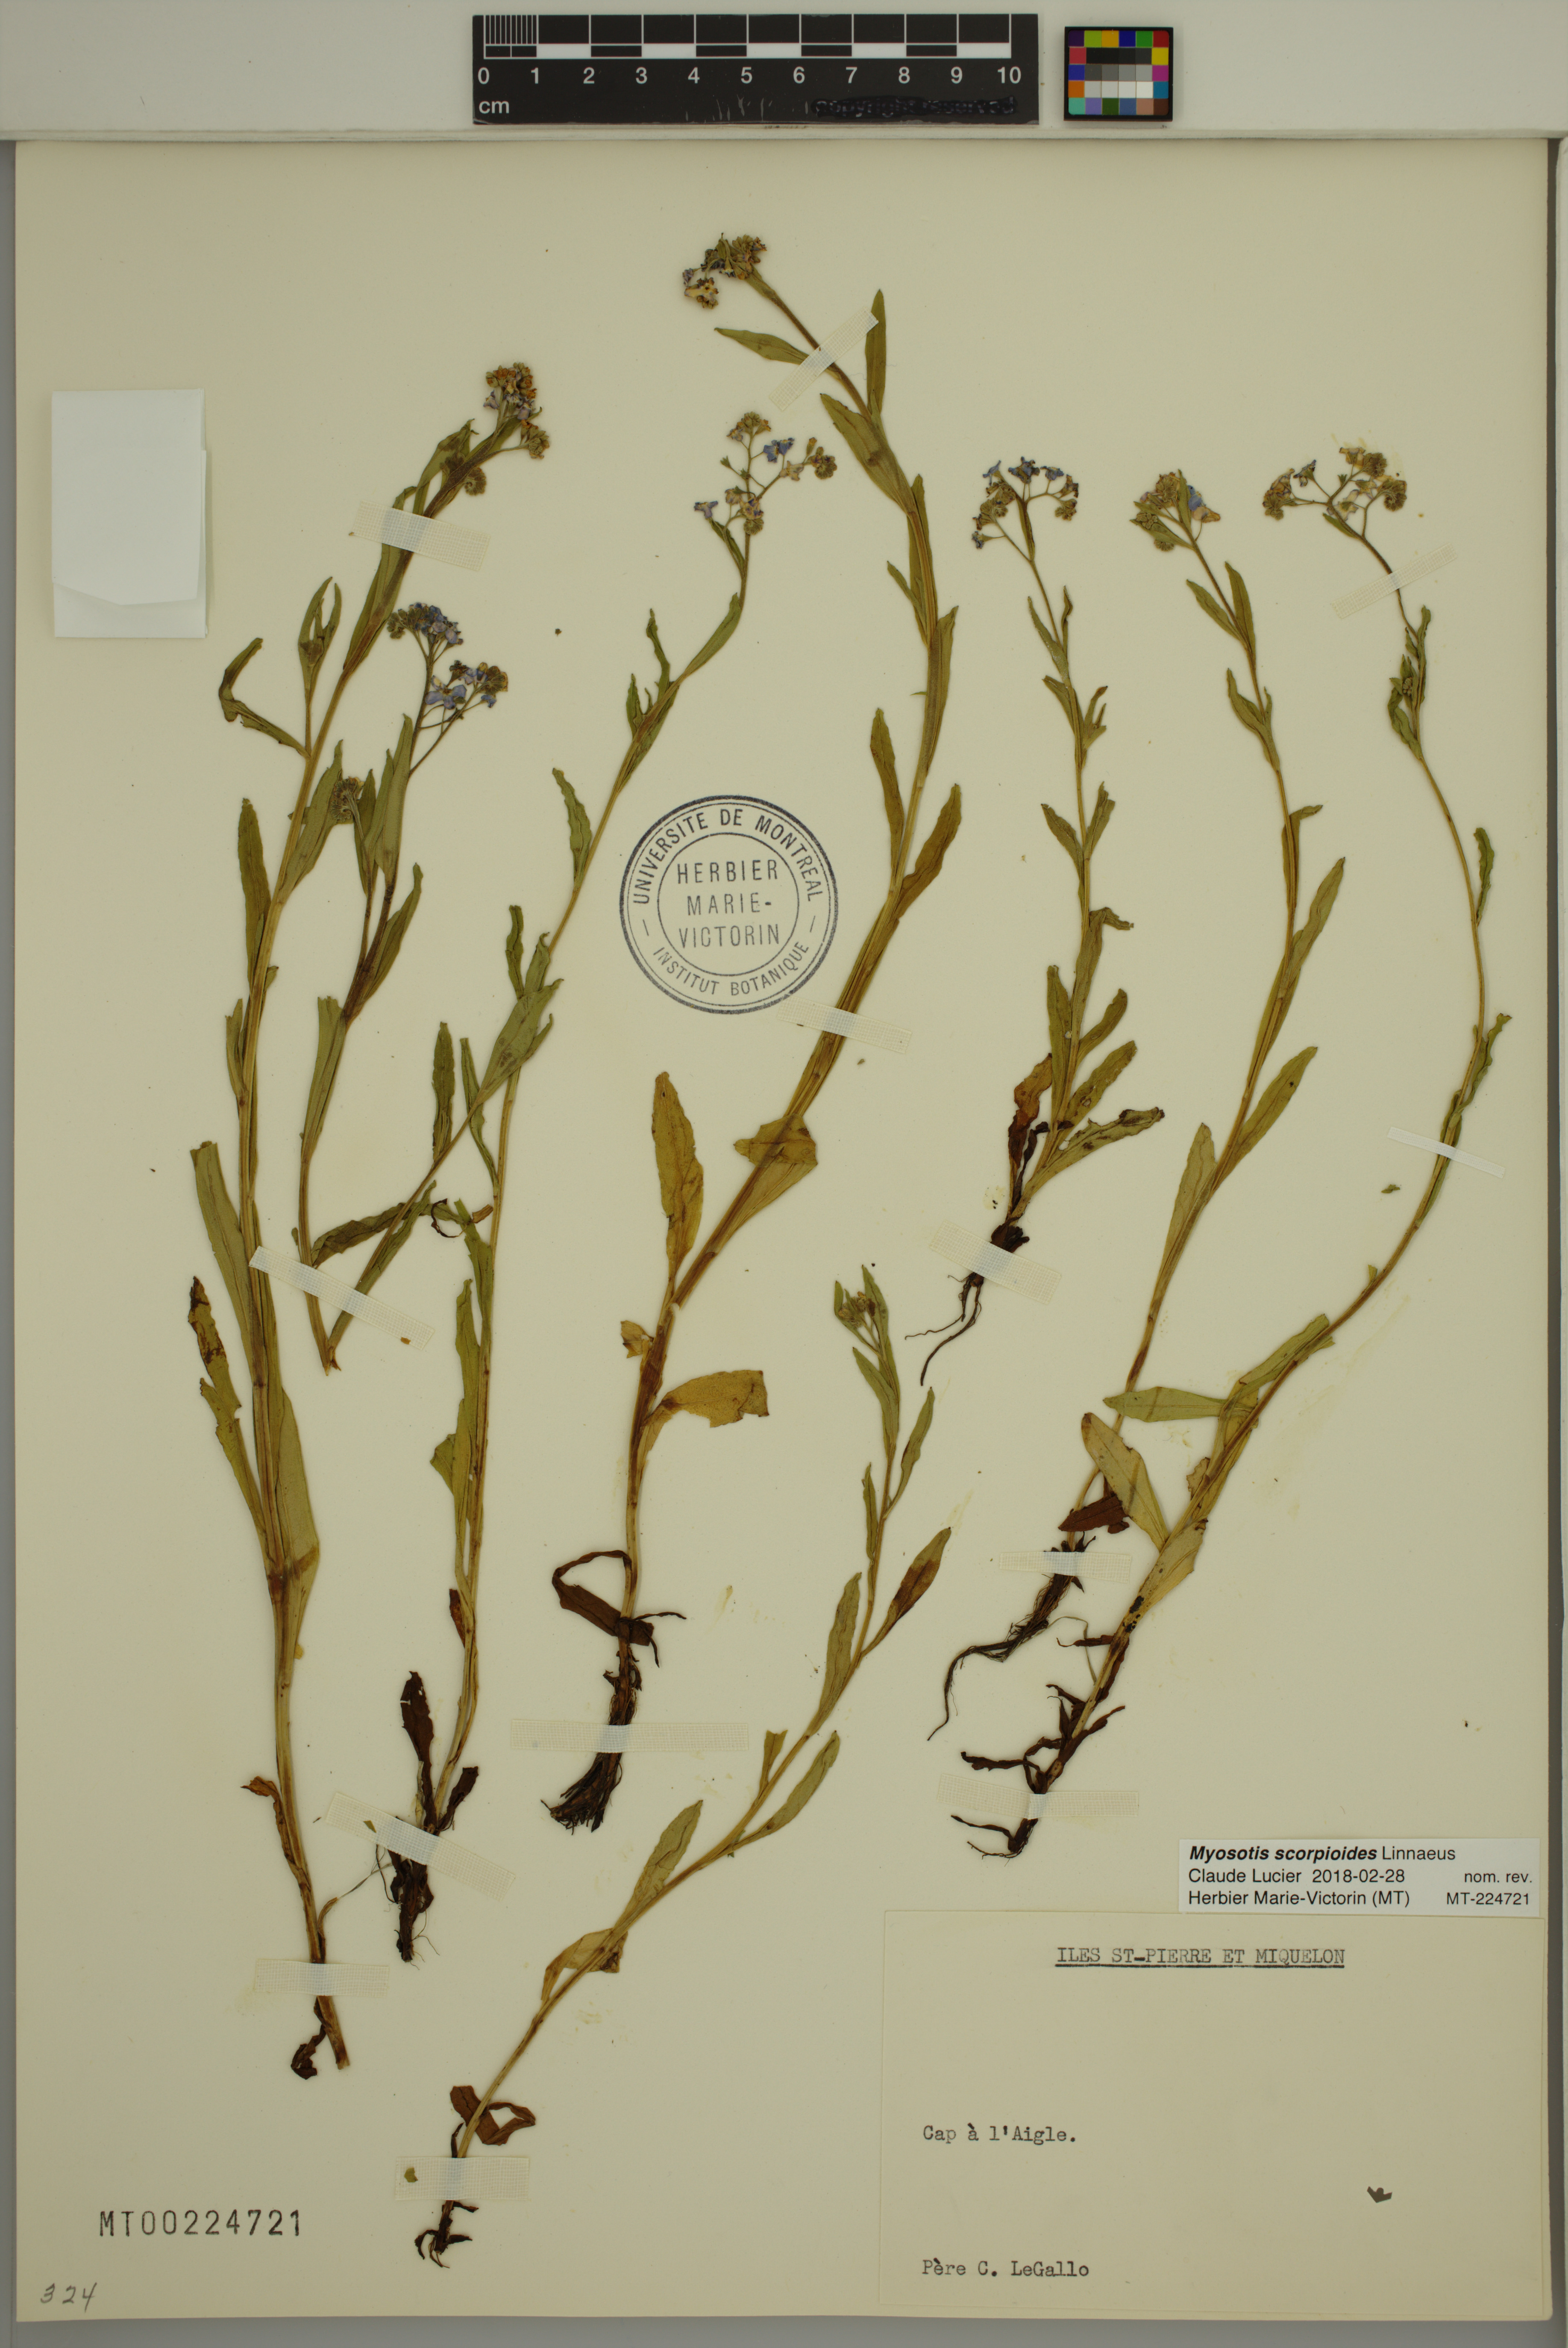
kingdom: Plantae
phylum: Tracheophyta
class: Magnoliopsida
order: Boraginales
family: Boraginaceae
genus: Myosotis
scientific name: Myosotis scorpioides
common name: Water forget-me-not
